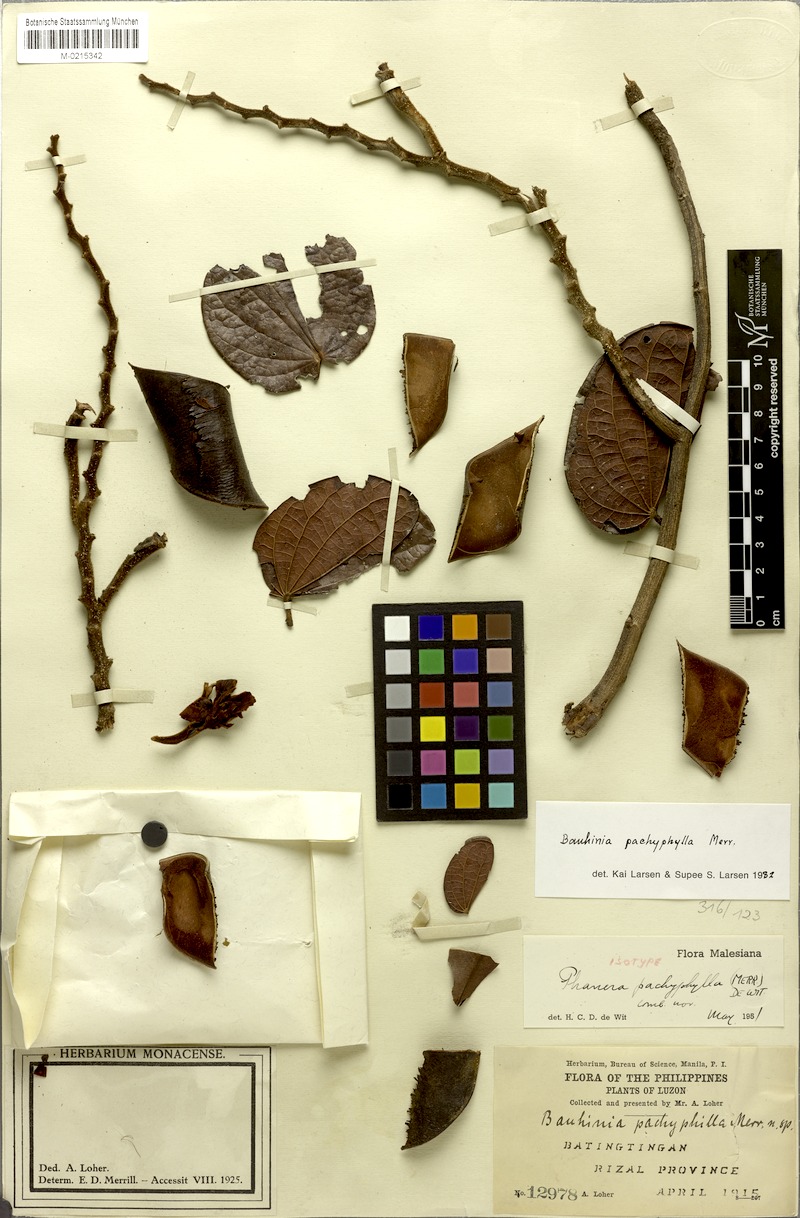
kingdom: Plantae
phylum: Tracheophyta
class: Magnoliopsida
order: Fabales
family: Fabaceae
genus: Phanera
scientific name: Phanera pachyphylla
